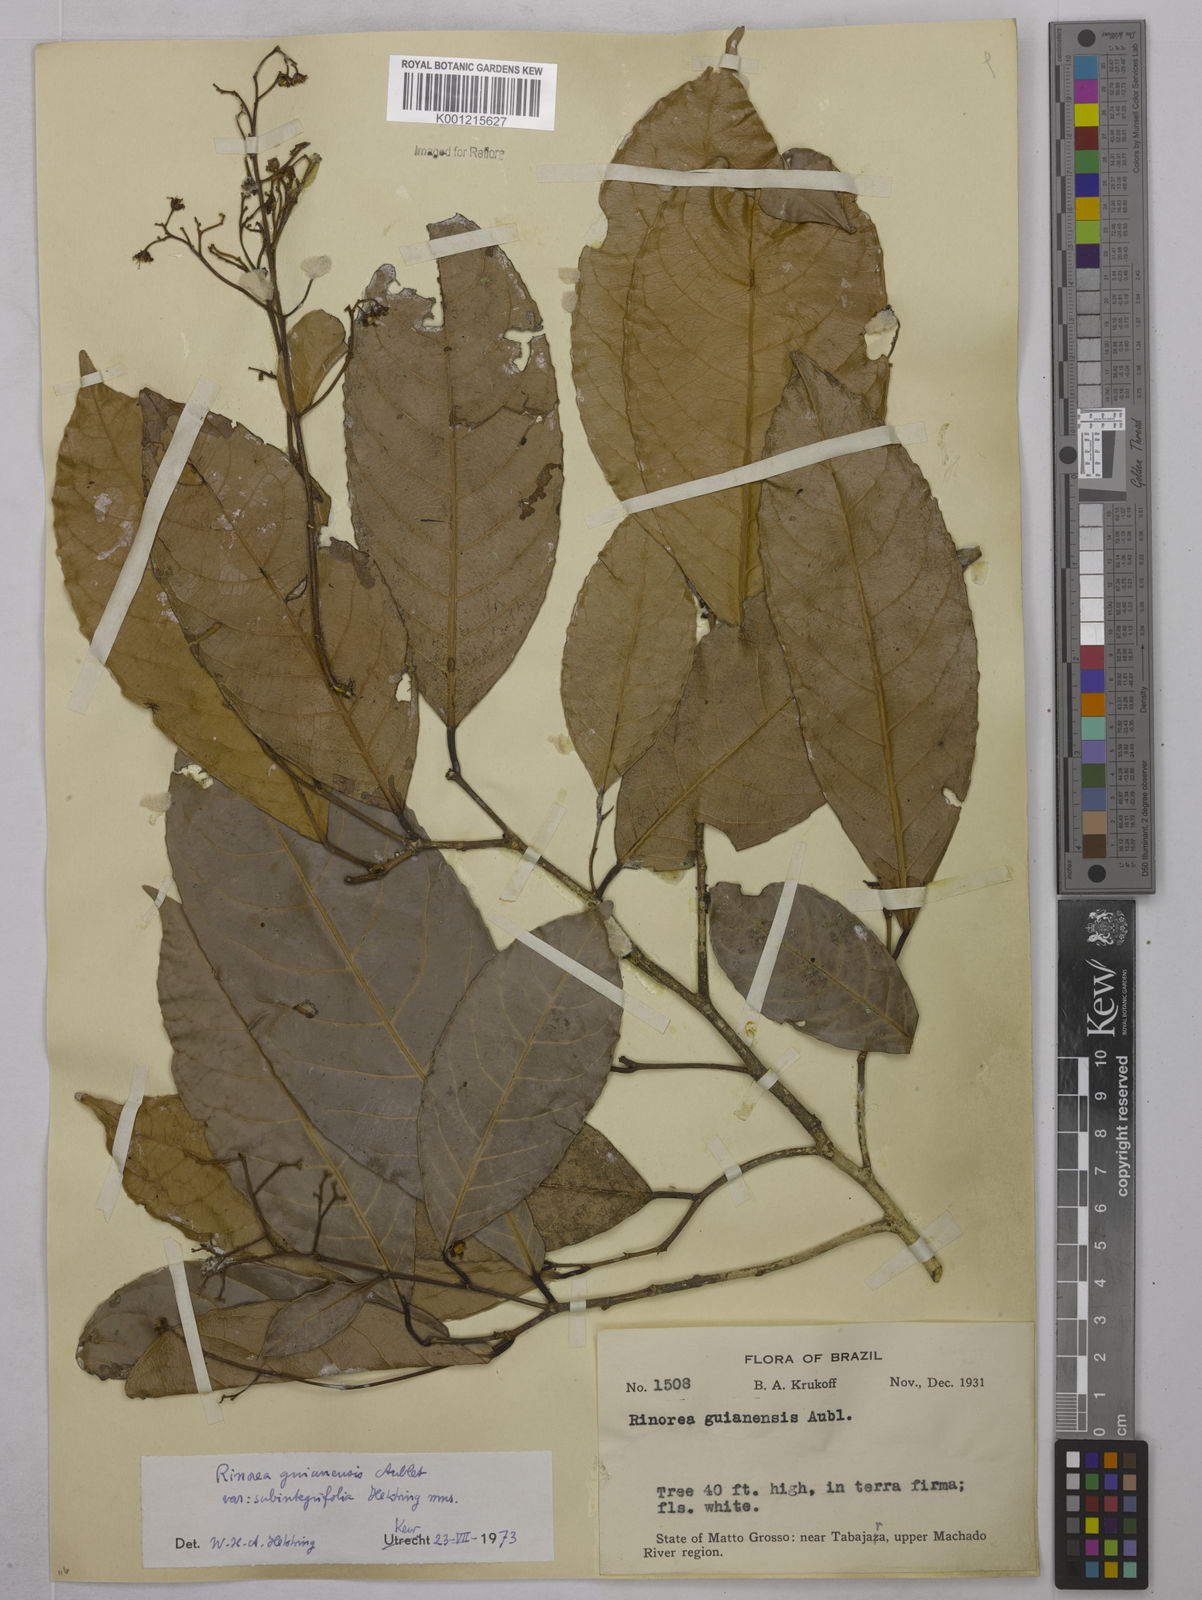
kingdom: Plantae
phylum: Tracheophyta
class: Magnoliopsida
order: Malpighiales
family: Violaceae
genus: Rinorea
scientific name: Rinorea guianensis
